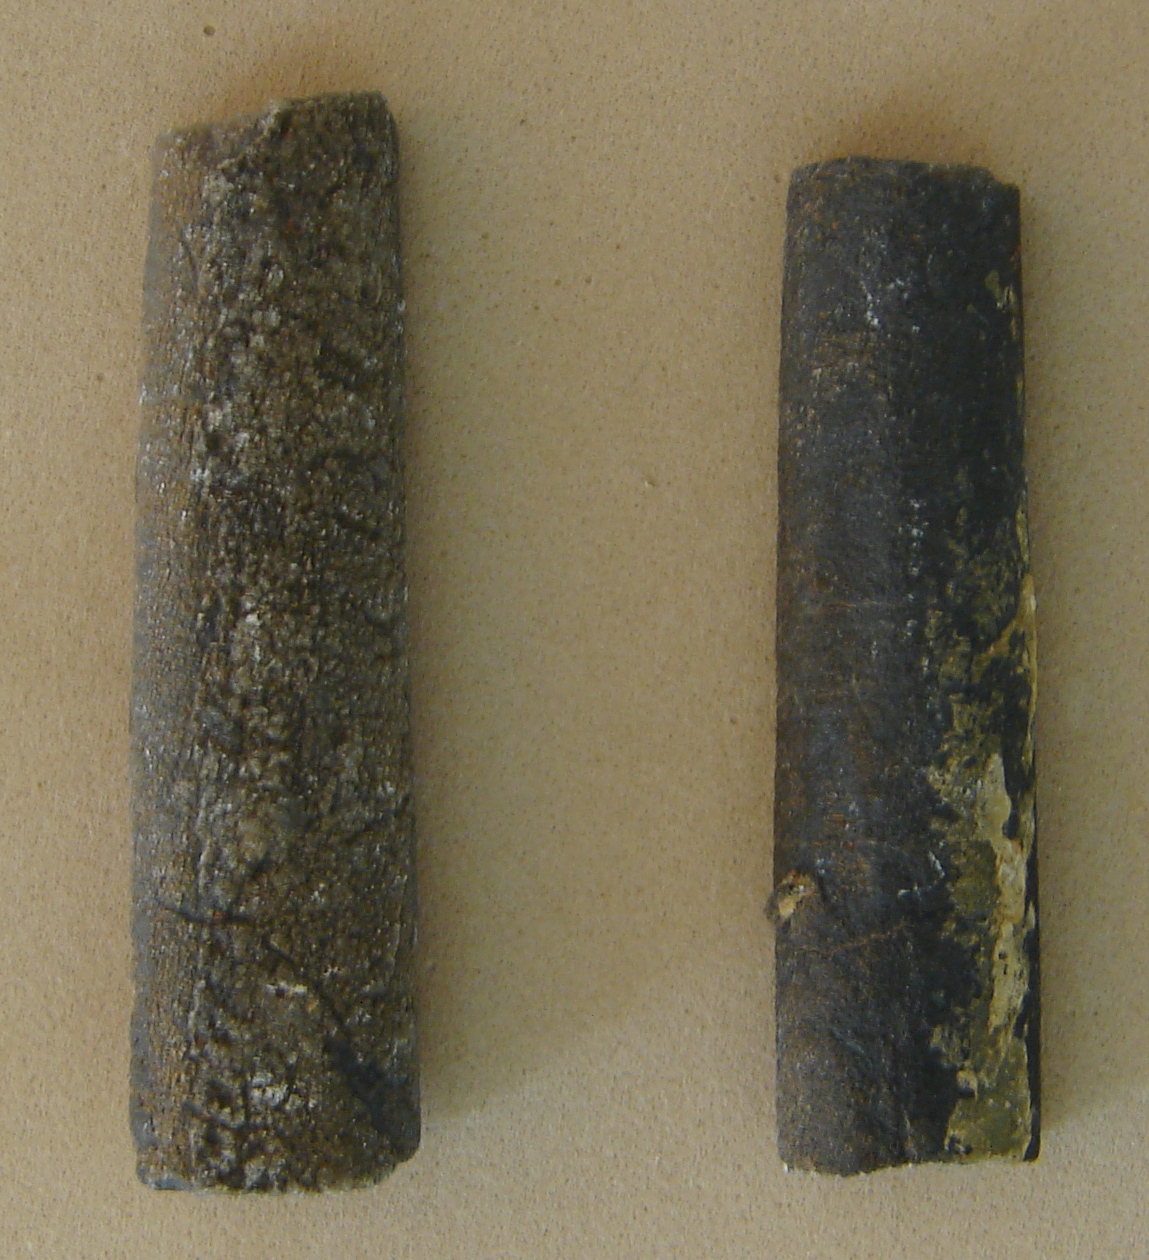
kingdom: Animalia
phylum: Mollusca
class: Cephalopoda
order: Belemnitida
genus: Holcobelus
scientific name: Holcobelus munieri
